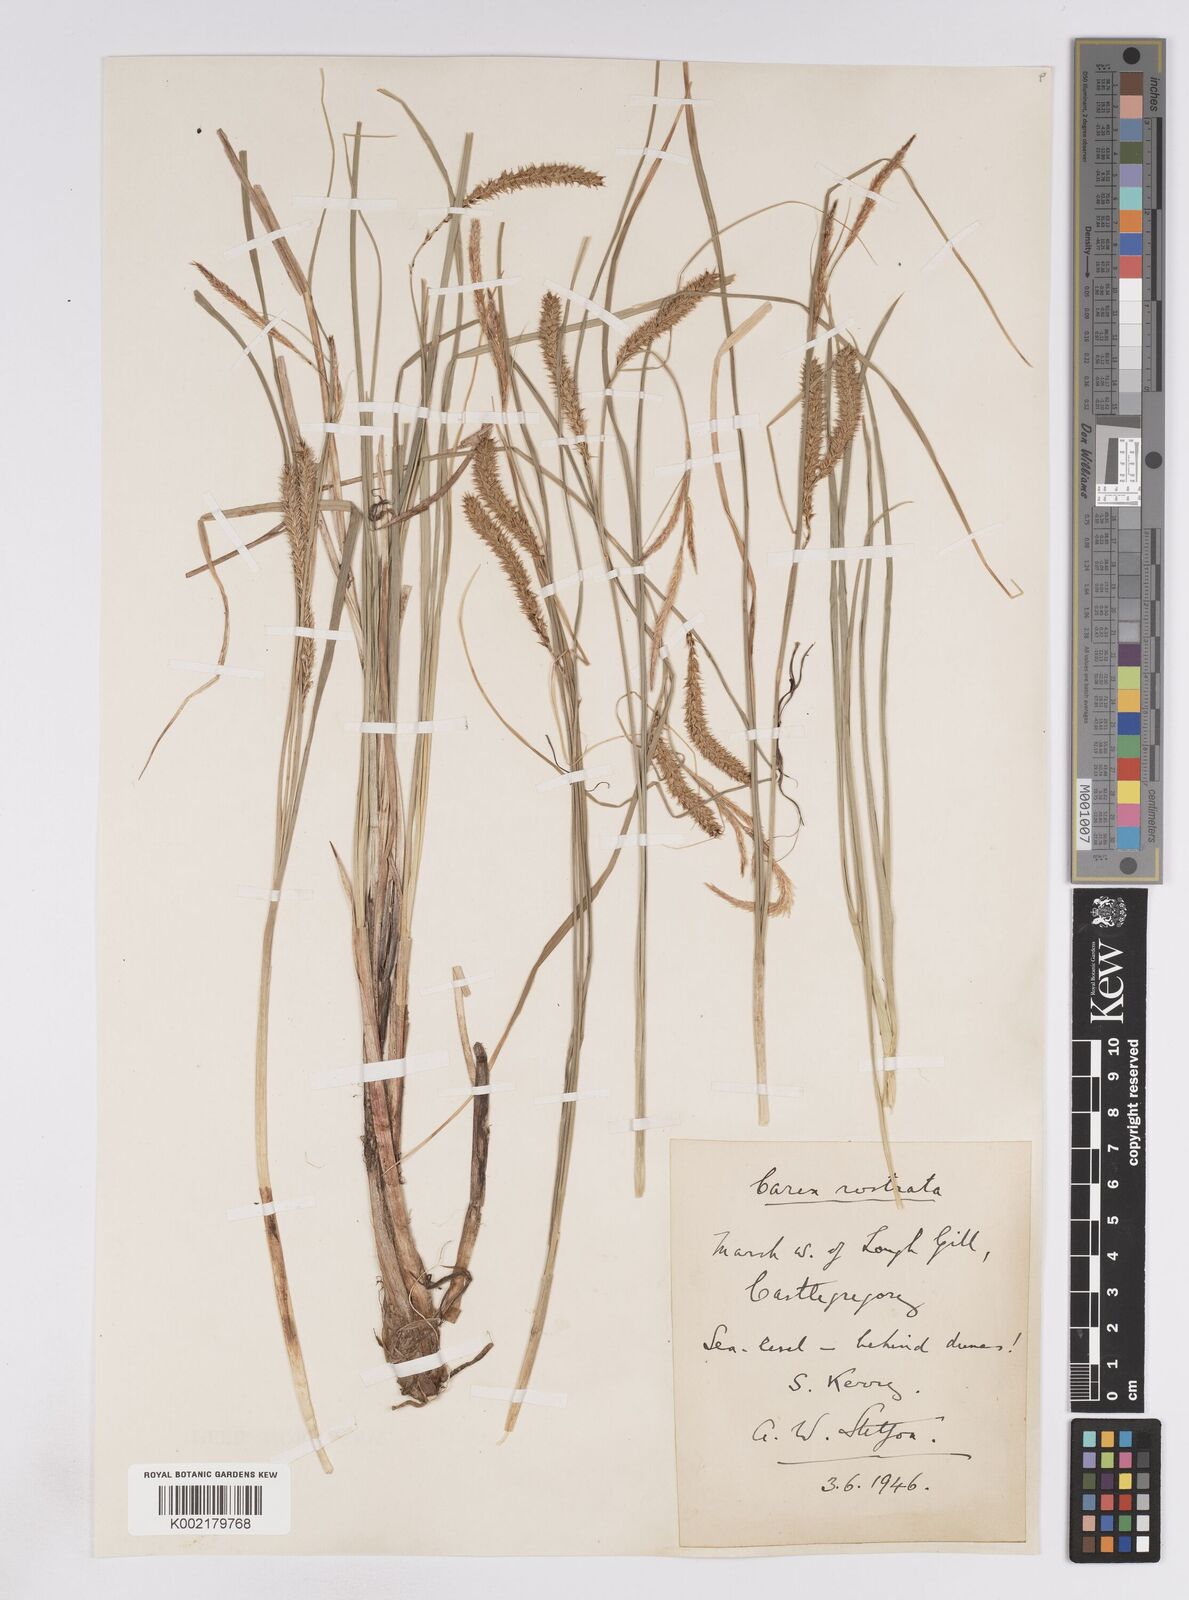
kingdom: Plantae
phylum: Tracheophyta
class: Liliopsida
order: Poales
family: Cyperaceae
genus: Carex
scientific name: Carex rostrata
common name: Bottle sedge
